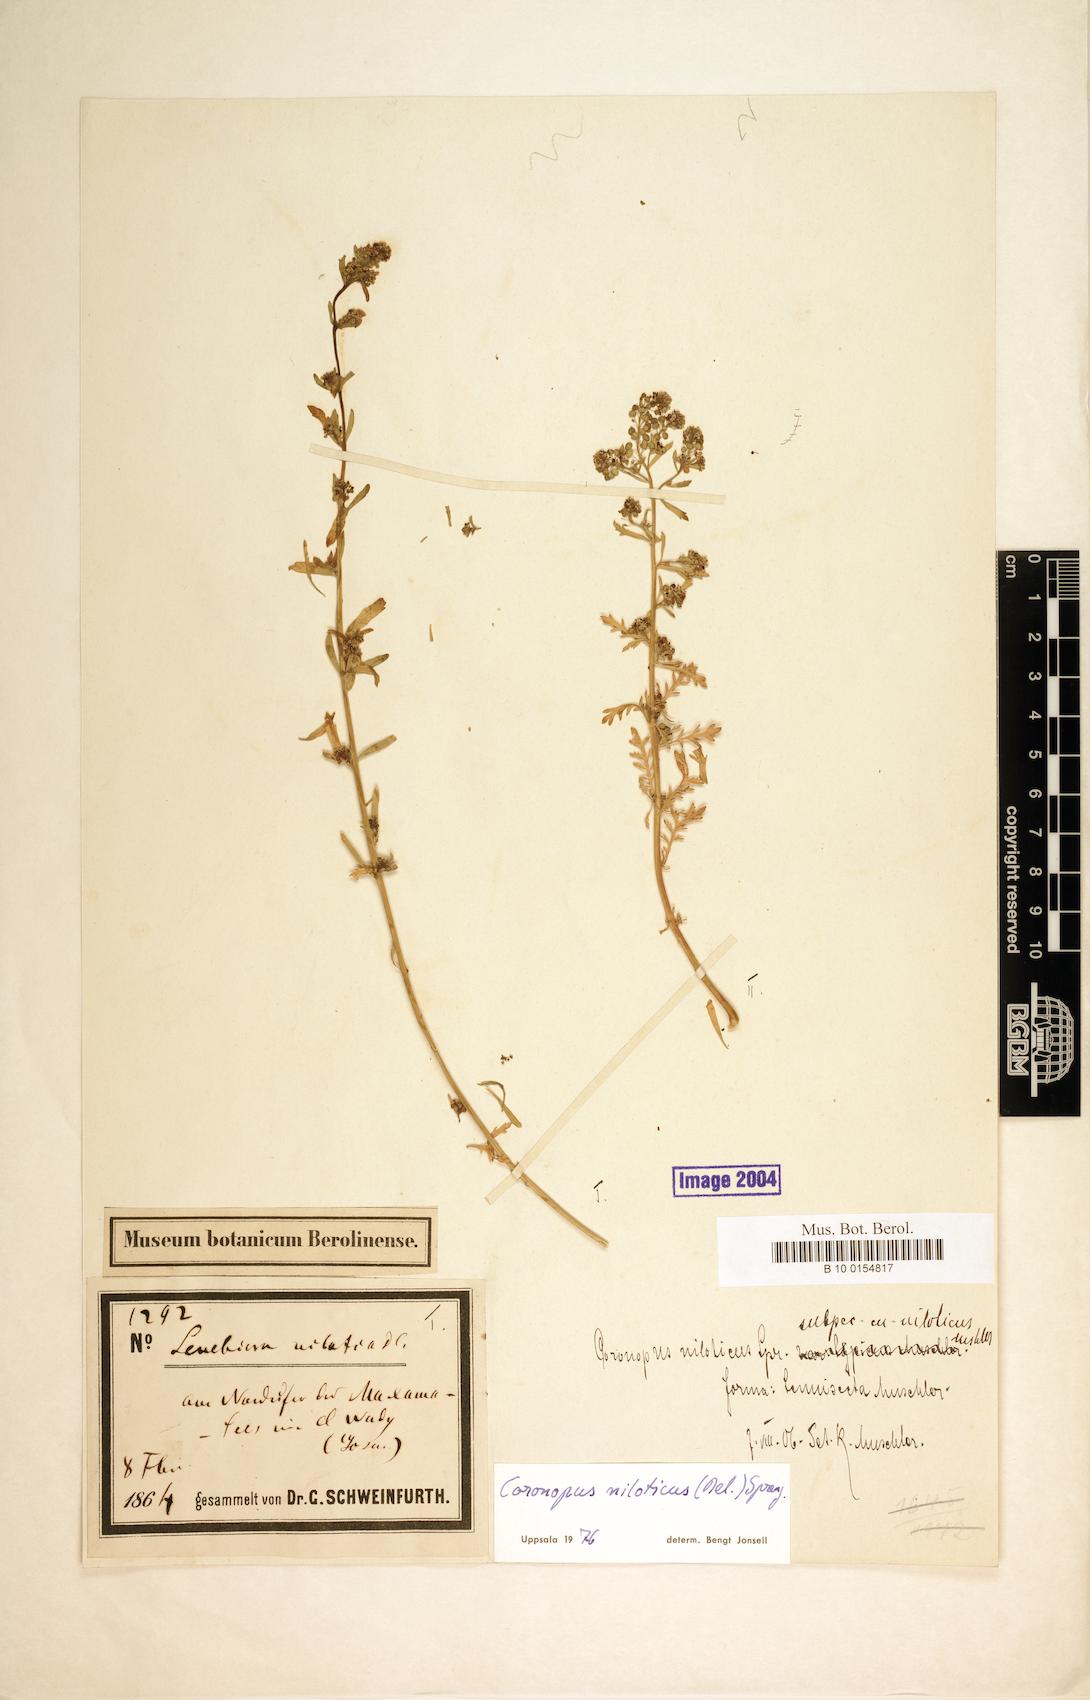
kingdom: Plantae
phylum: Tracheophyta
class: Magnoliopsida
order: Brassicales
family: Brassicaceae
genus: Lepidium
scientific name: Lepidium niloticum
